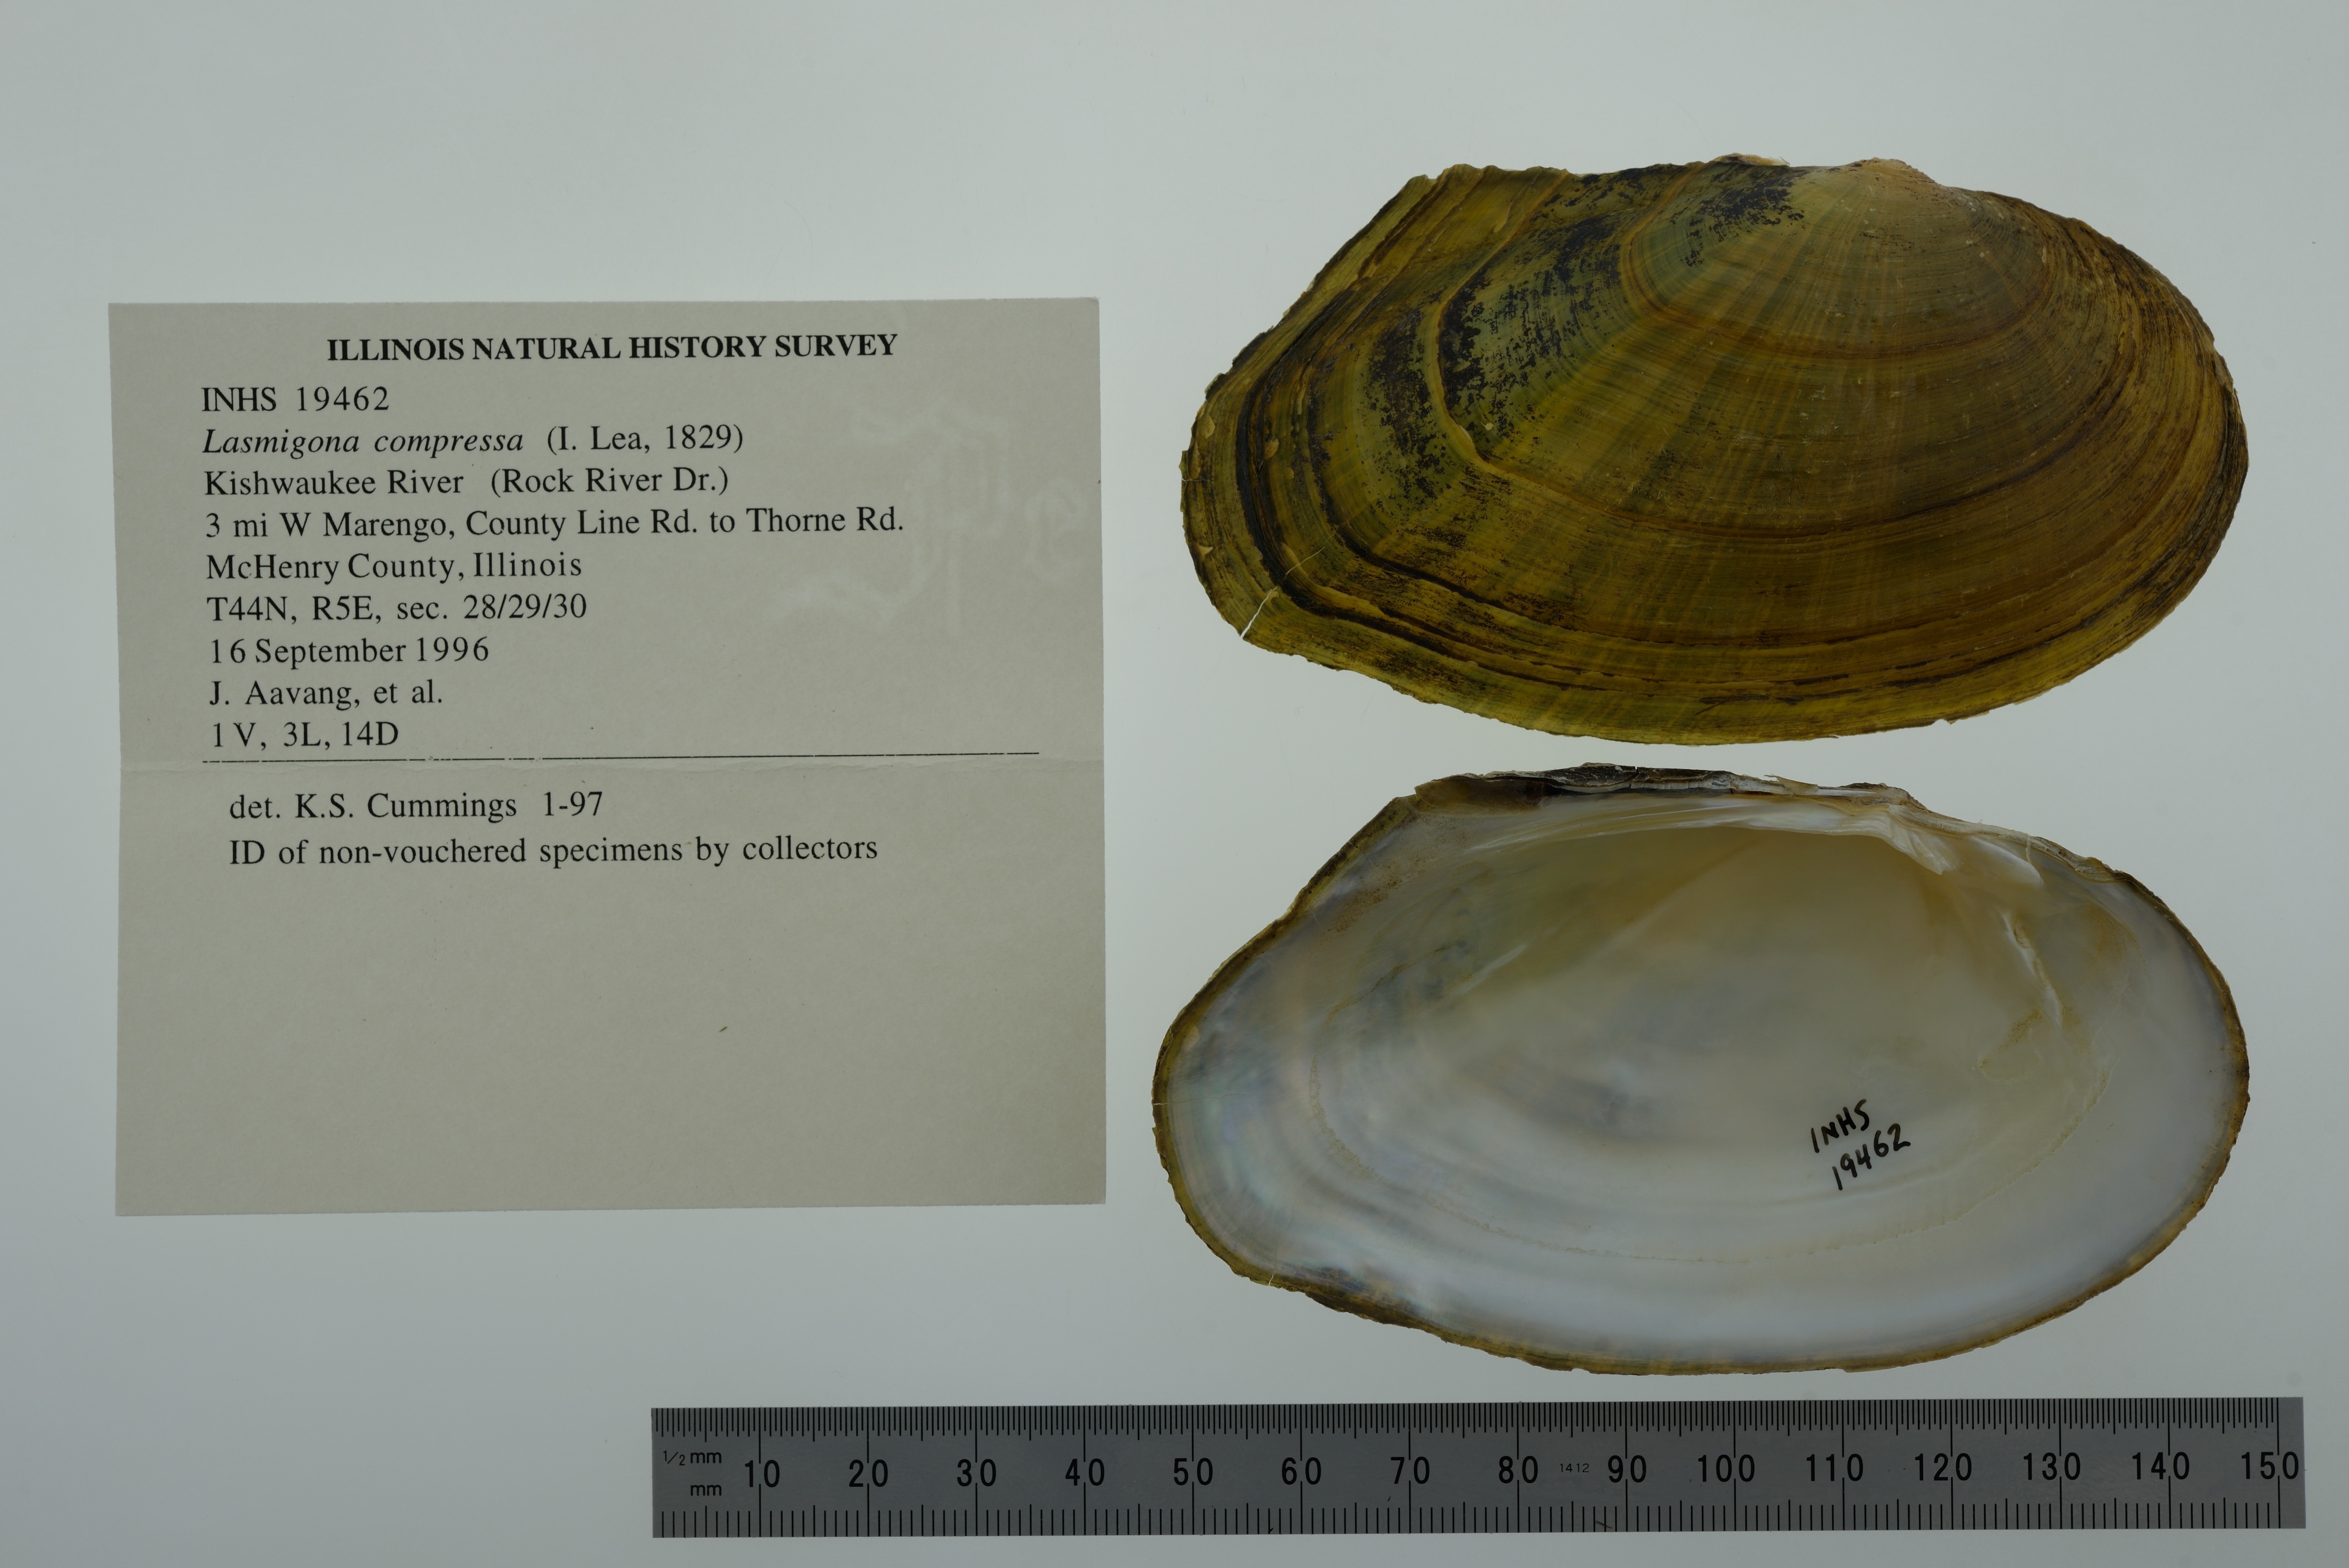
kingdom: Animalia
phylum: Mollusca
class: Bivalvia
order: Unionida
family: Unionidae
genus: Lasmigona
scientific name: Lasmigona compressa
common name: Creek heelsplitter
